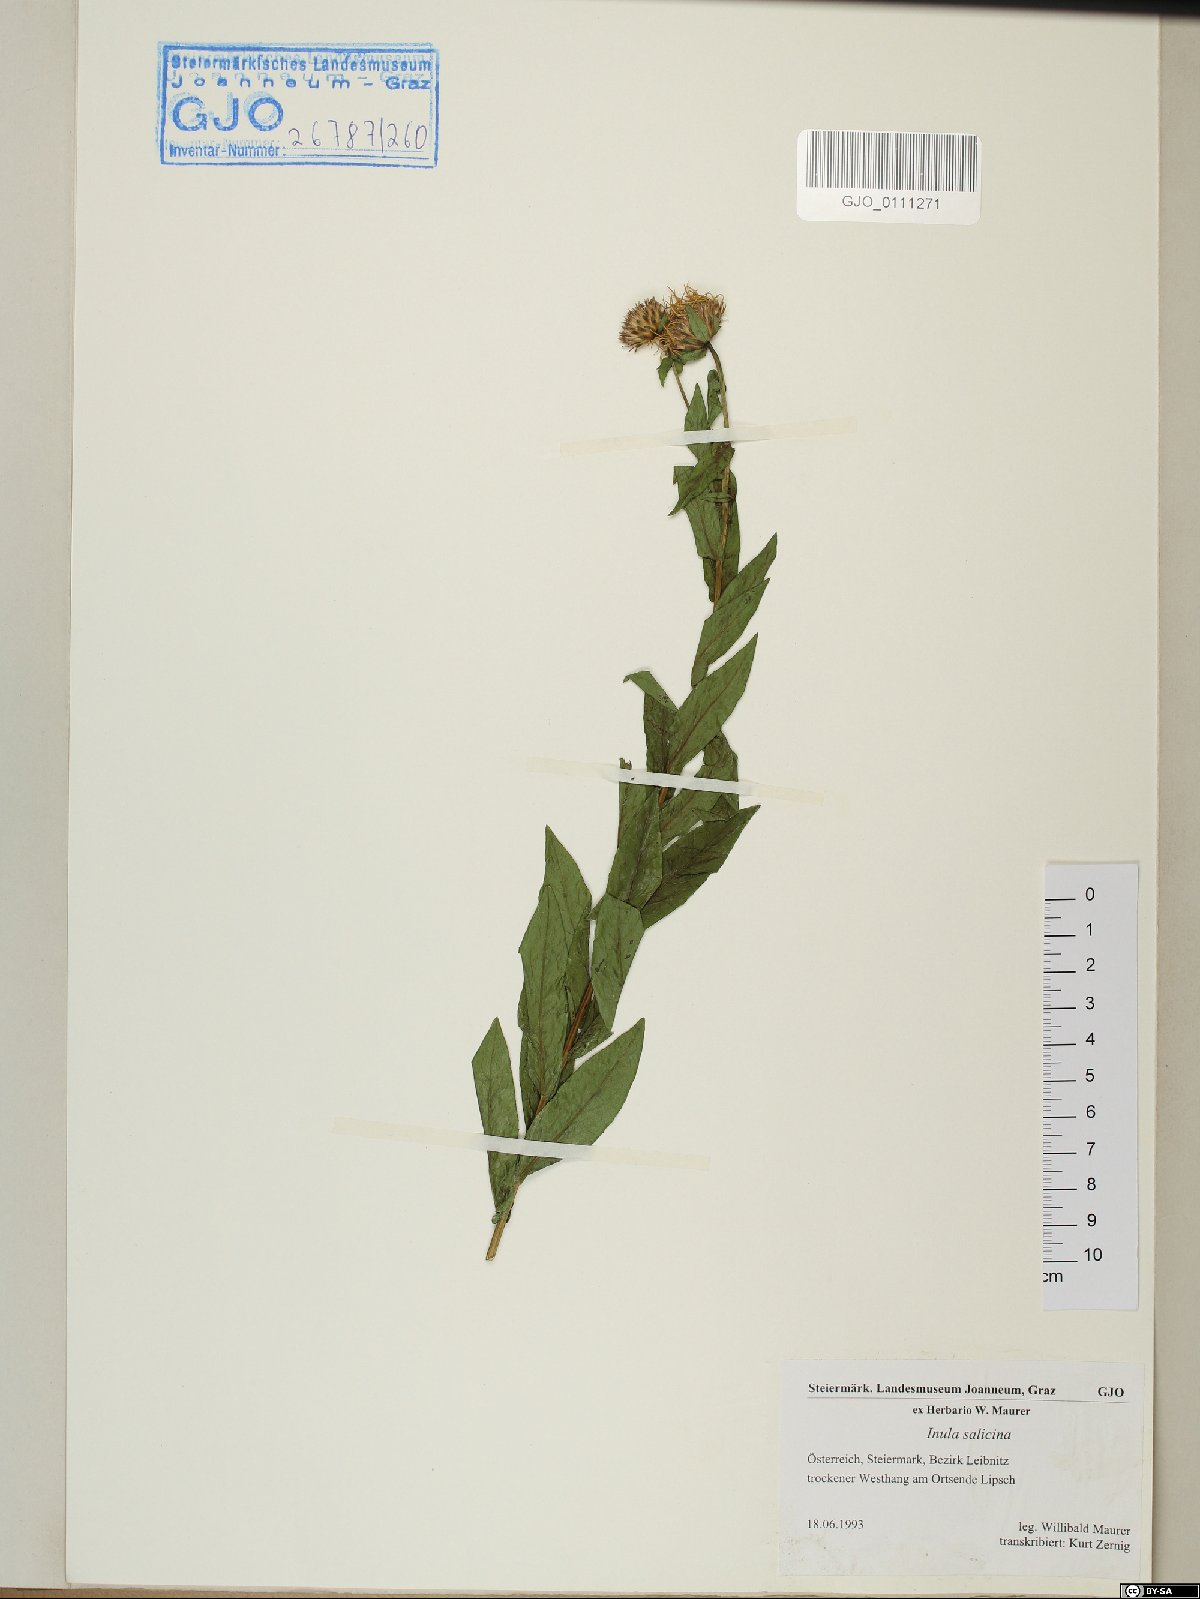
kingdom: Plantae
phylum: Tracheophyta
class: Magnoliopsida
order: Asterales
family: Asteraceae
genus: Pentanema
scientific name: Pentanema salicinum
